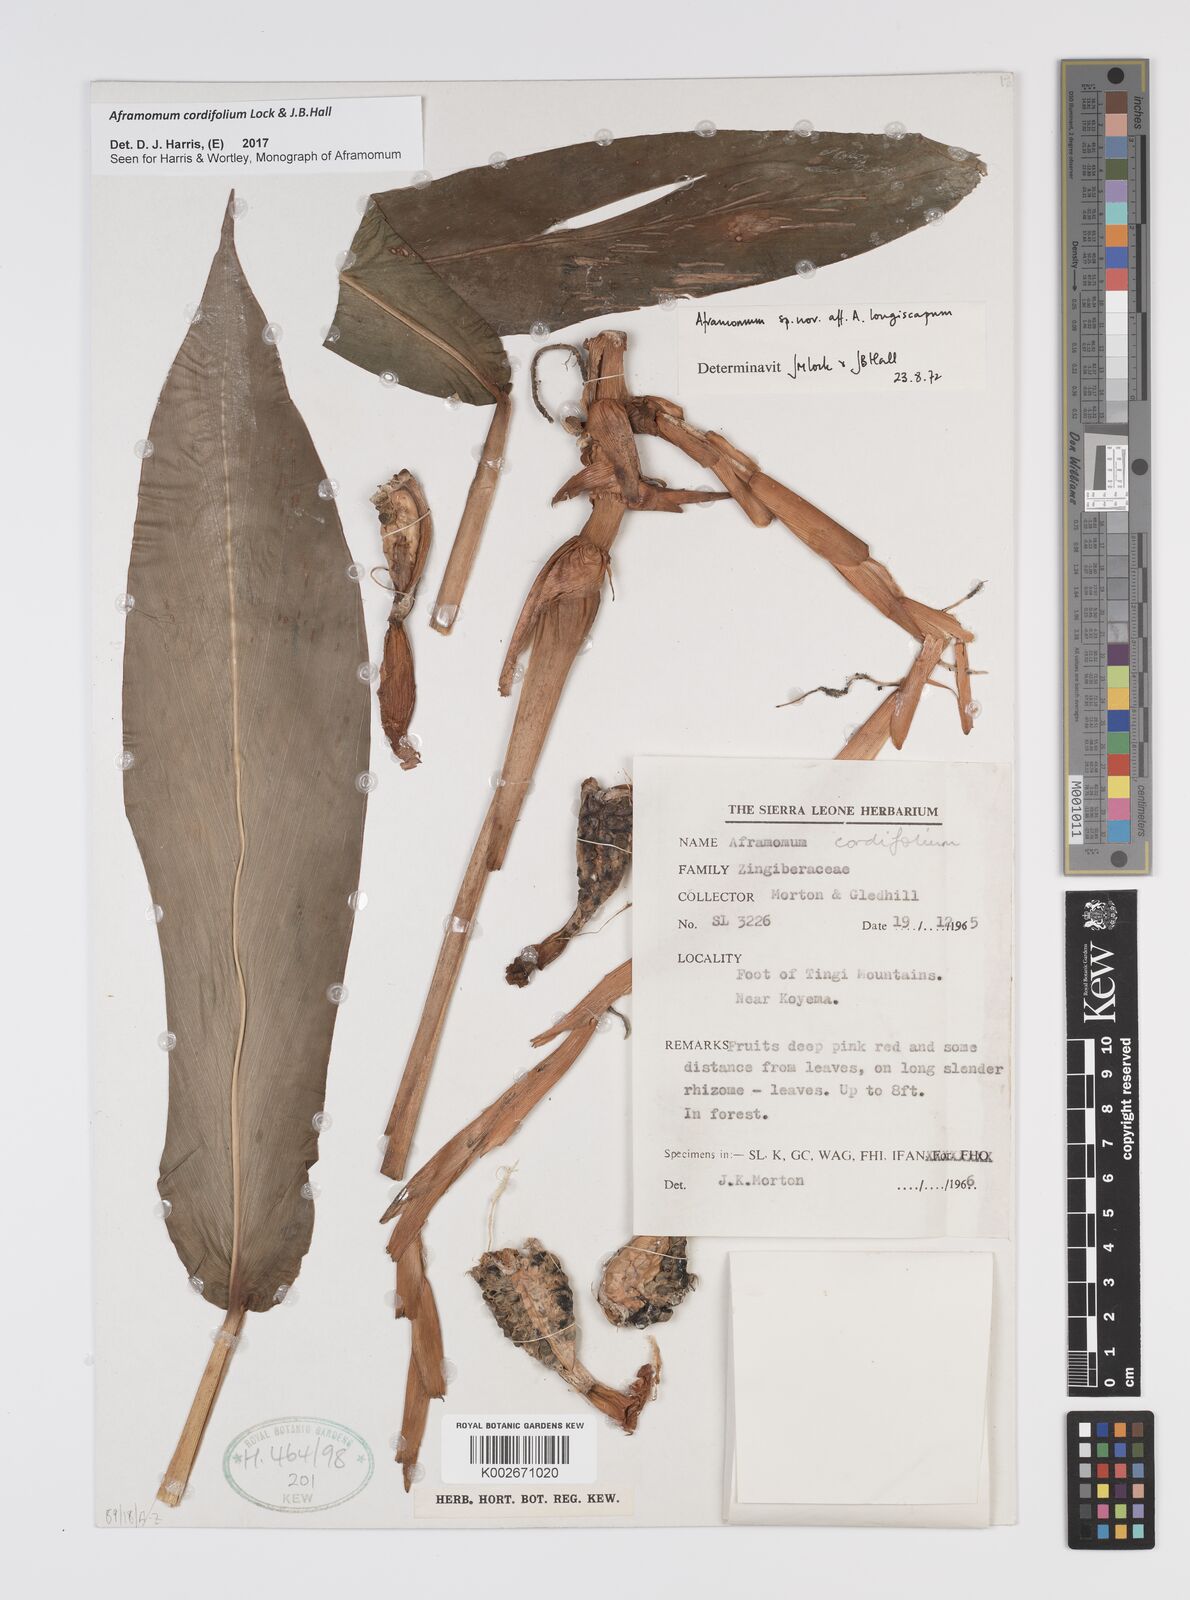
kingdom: Plantae
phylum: Tracheophyta
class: Liliopsida
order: Zingiberales
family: Zingiberaceae
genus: Aframomum
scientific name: Aframomum cordifolium
